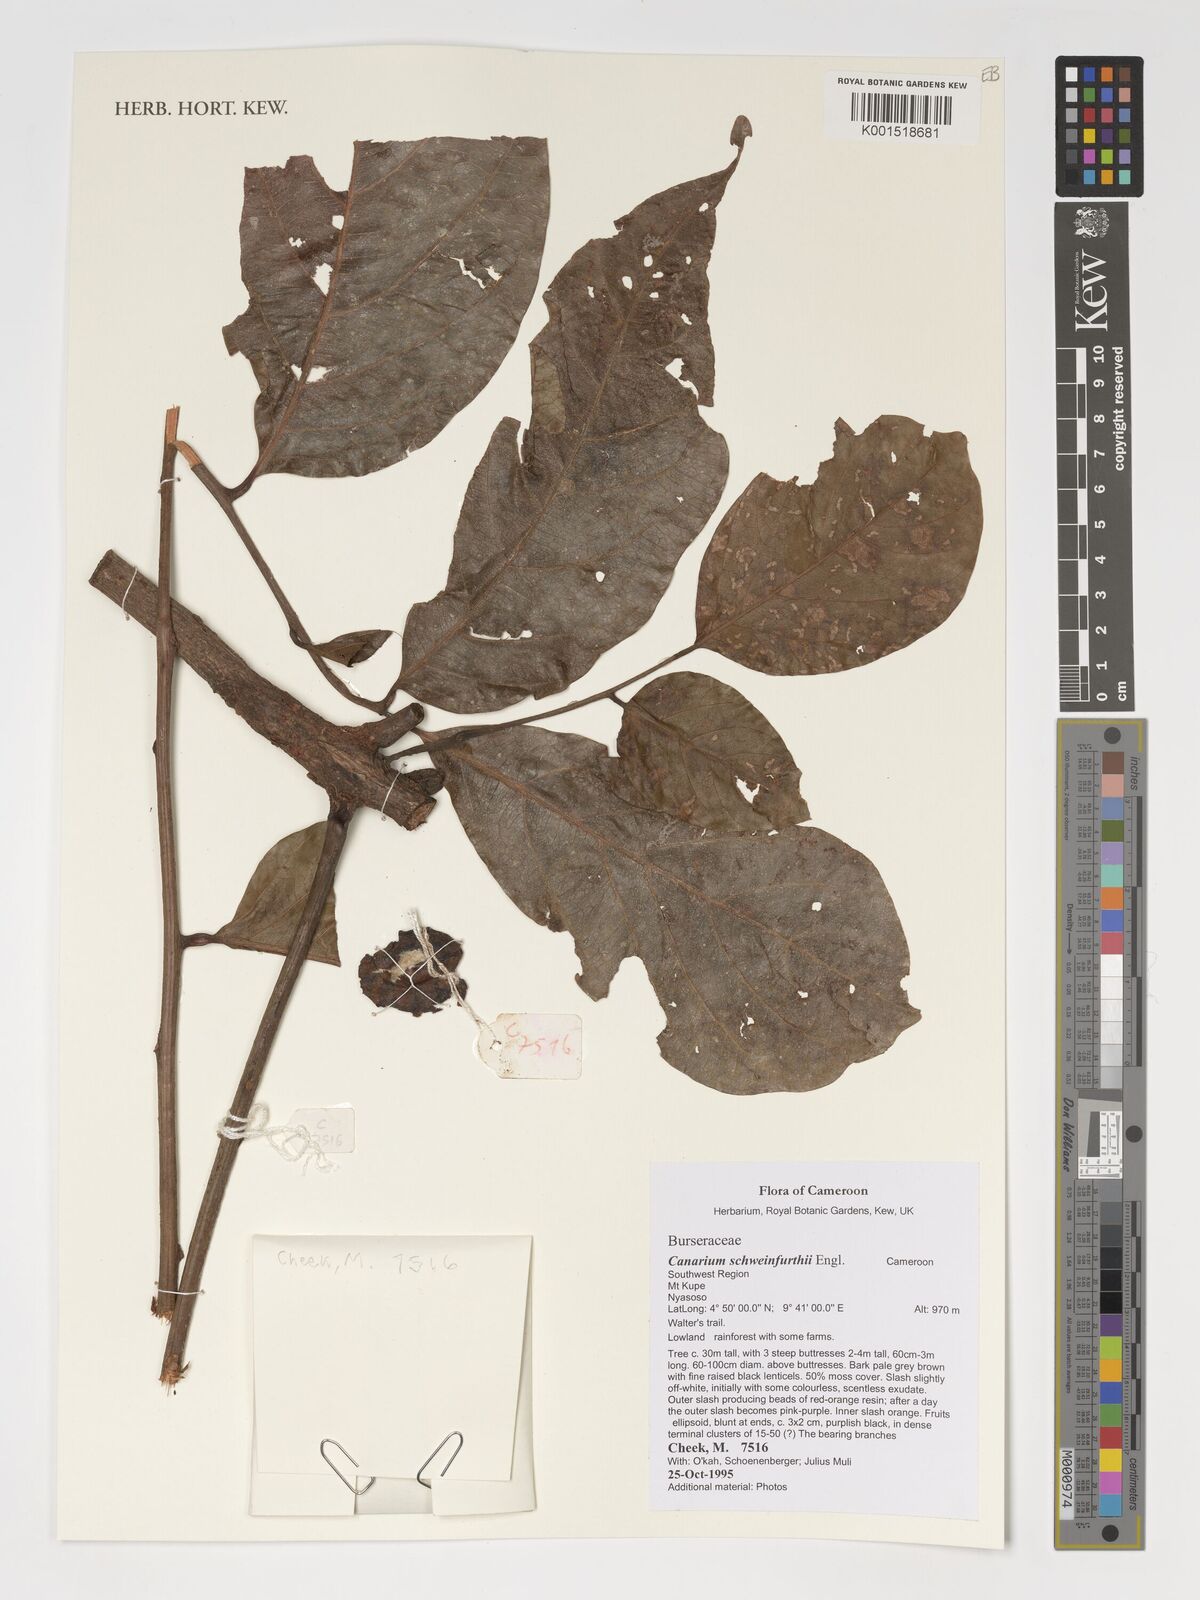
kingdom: Plantae
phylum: Tracheophyta
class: Magnoliopsida
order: Sapindales
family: Burseraceae
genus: Canarium
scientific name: Canarium schweinfurthii
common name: African elemi
